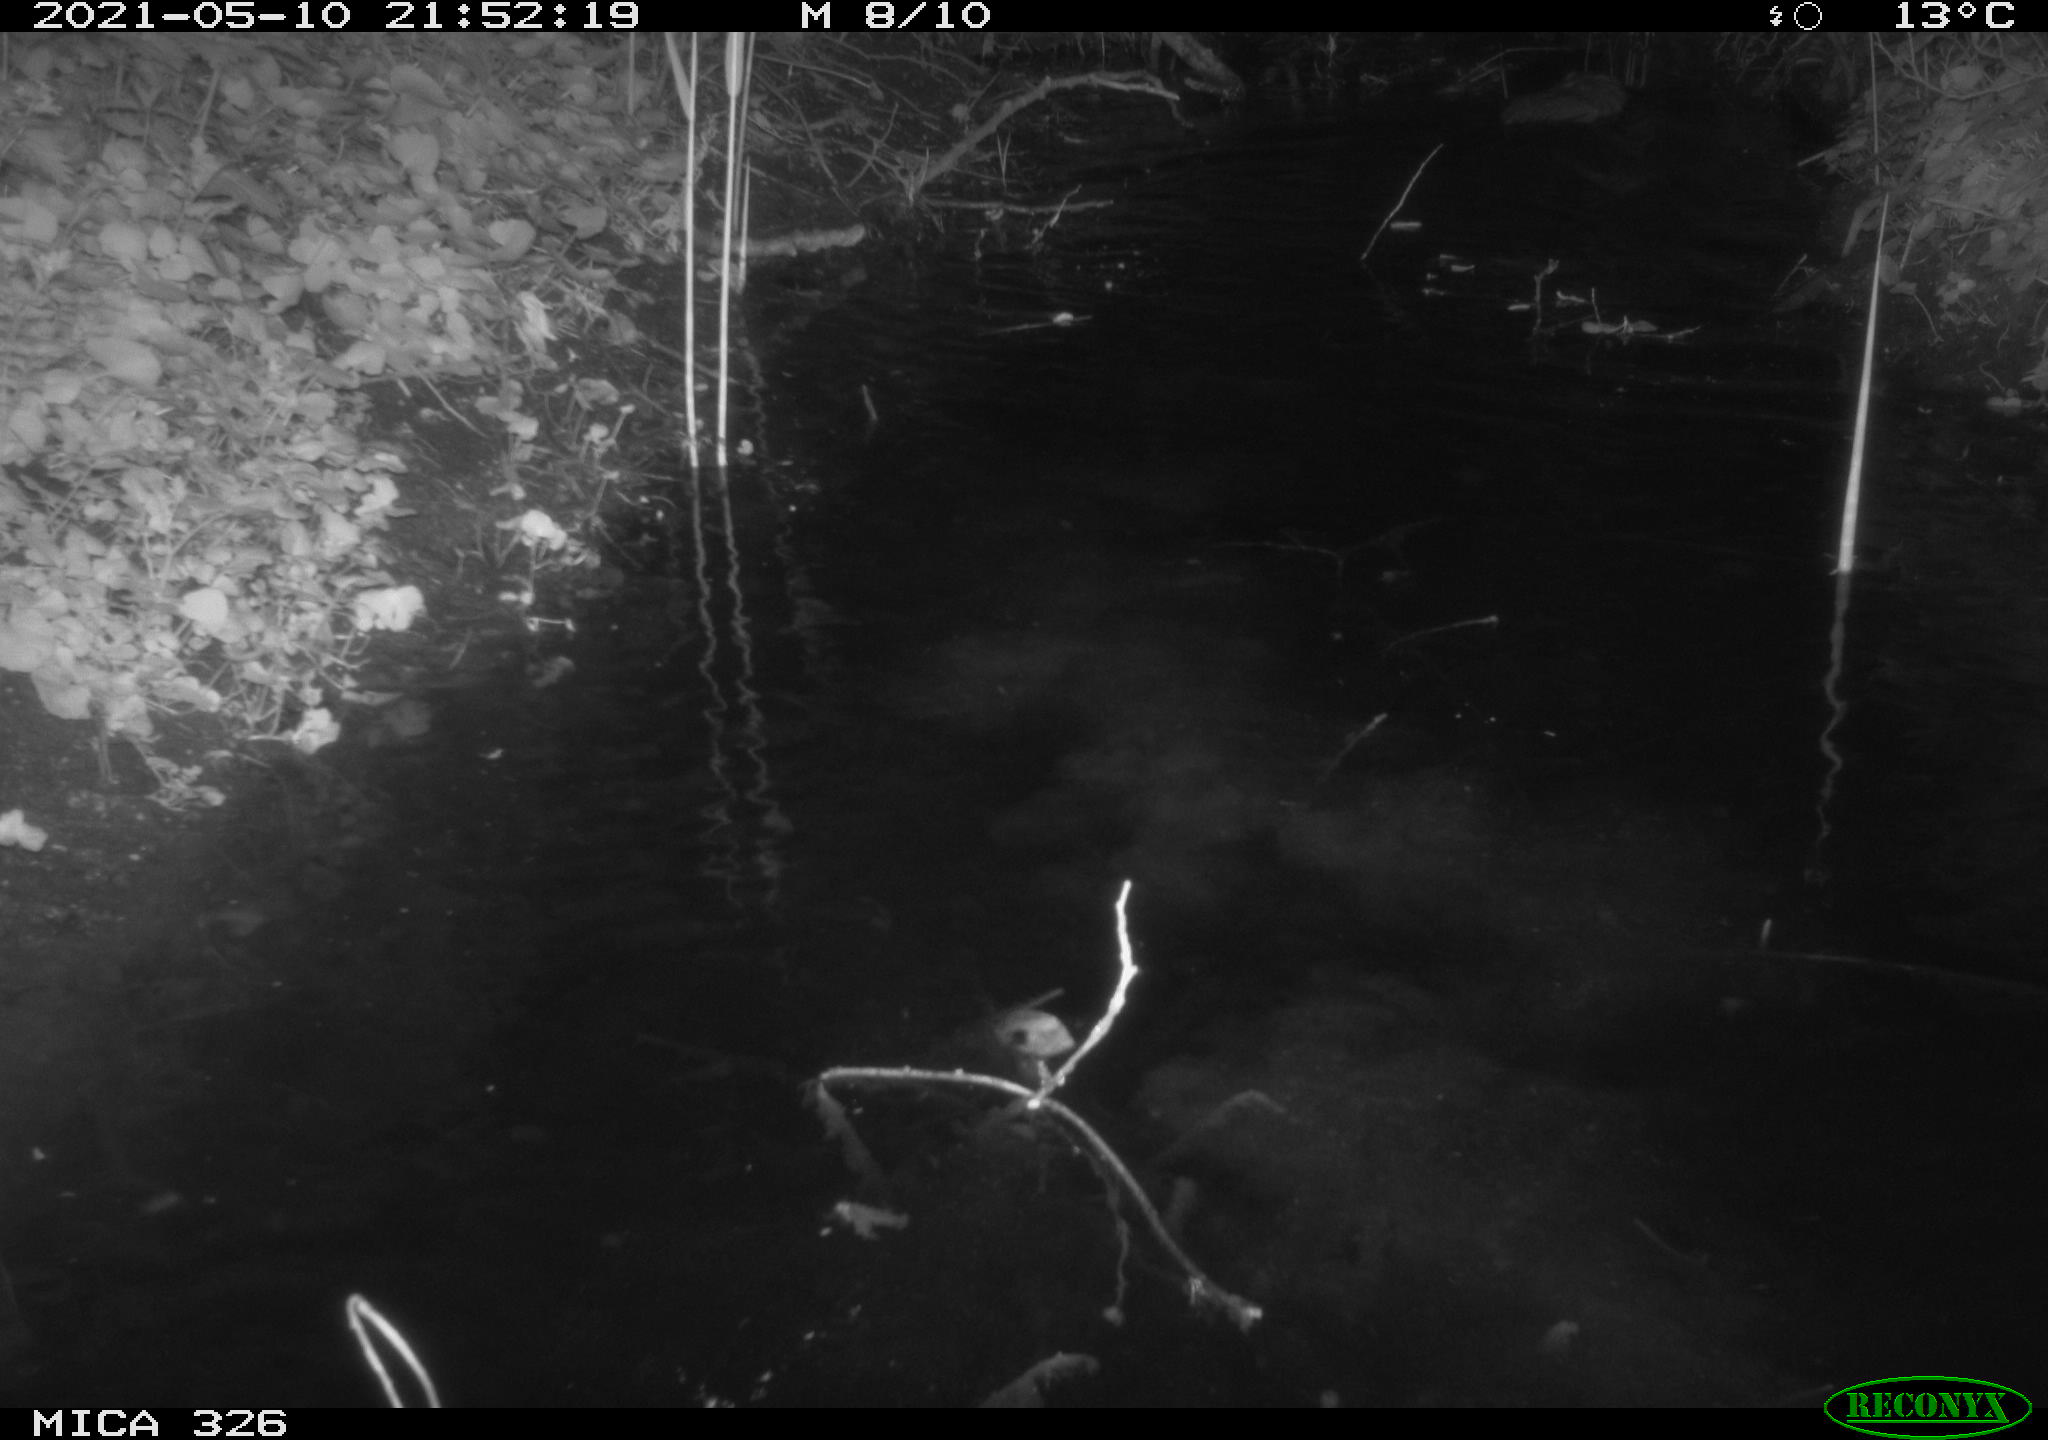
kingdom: Animalia
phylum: Chordata
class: Mammalia
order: Rodentia
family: Cricetidae
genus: Ondatra
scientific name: Ondatra zibethicus
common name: Muskrat
